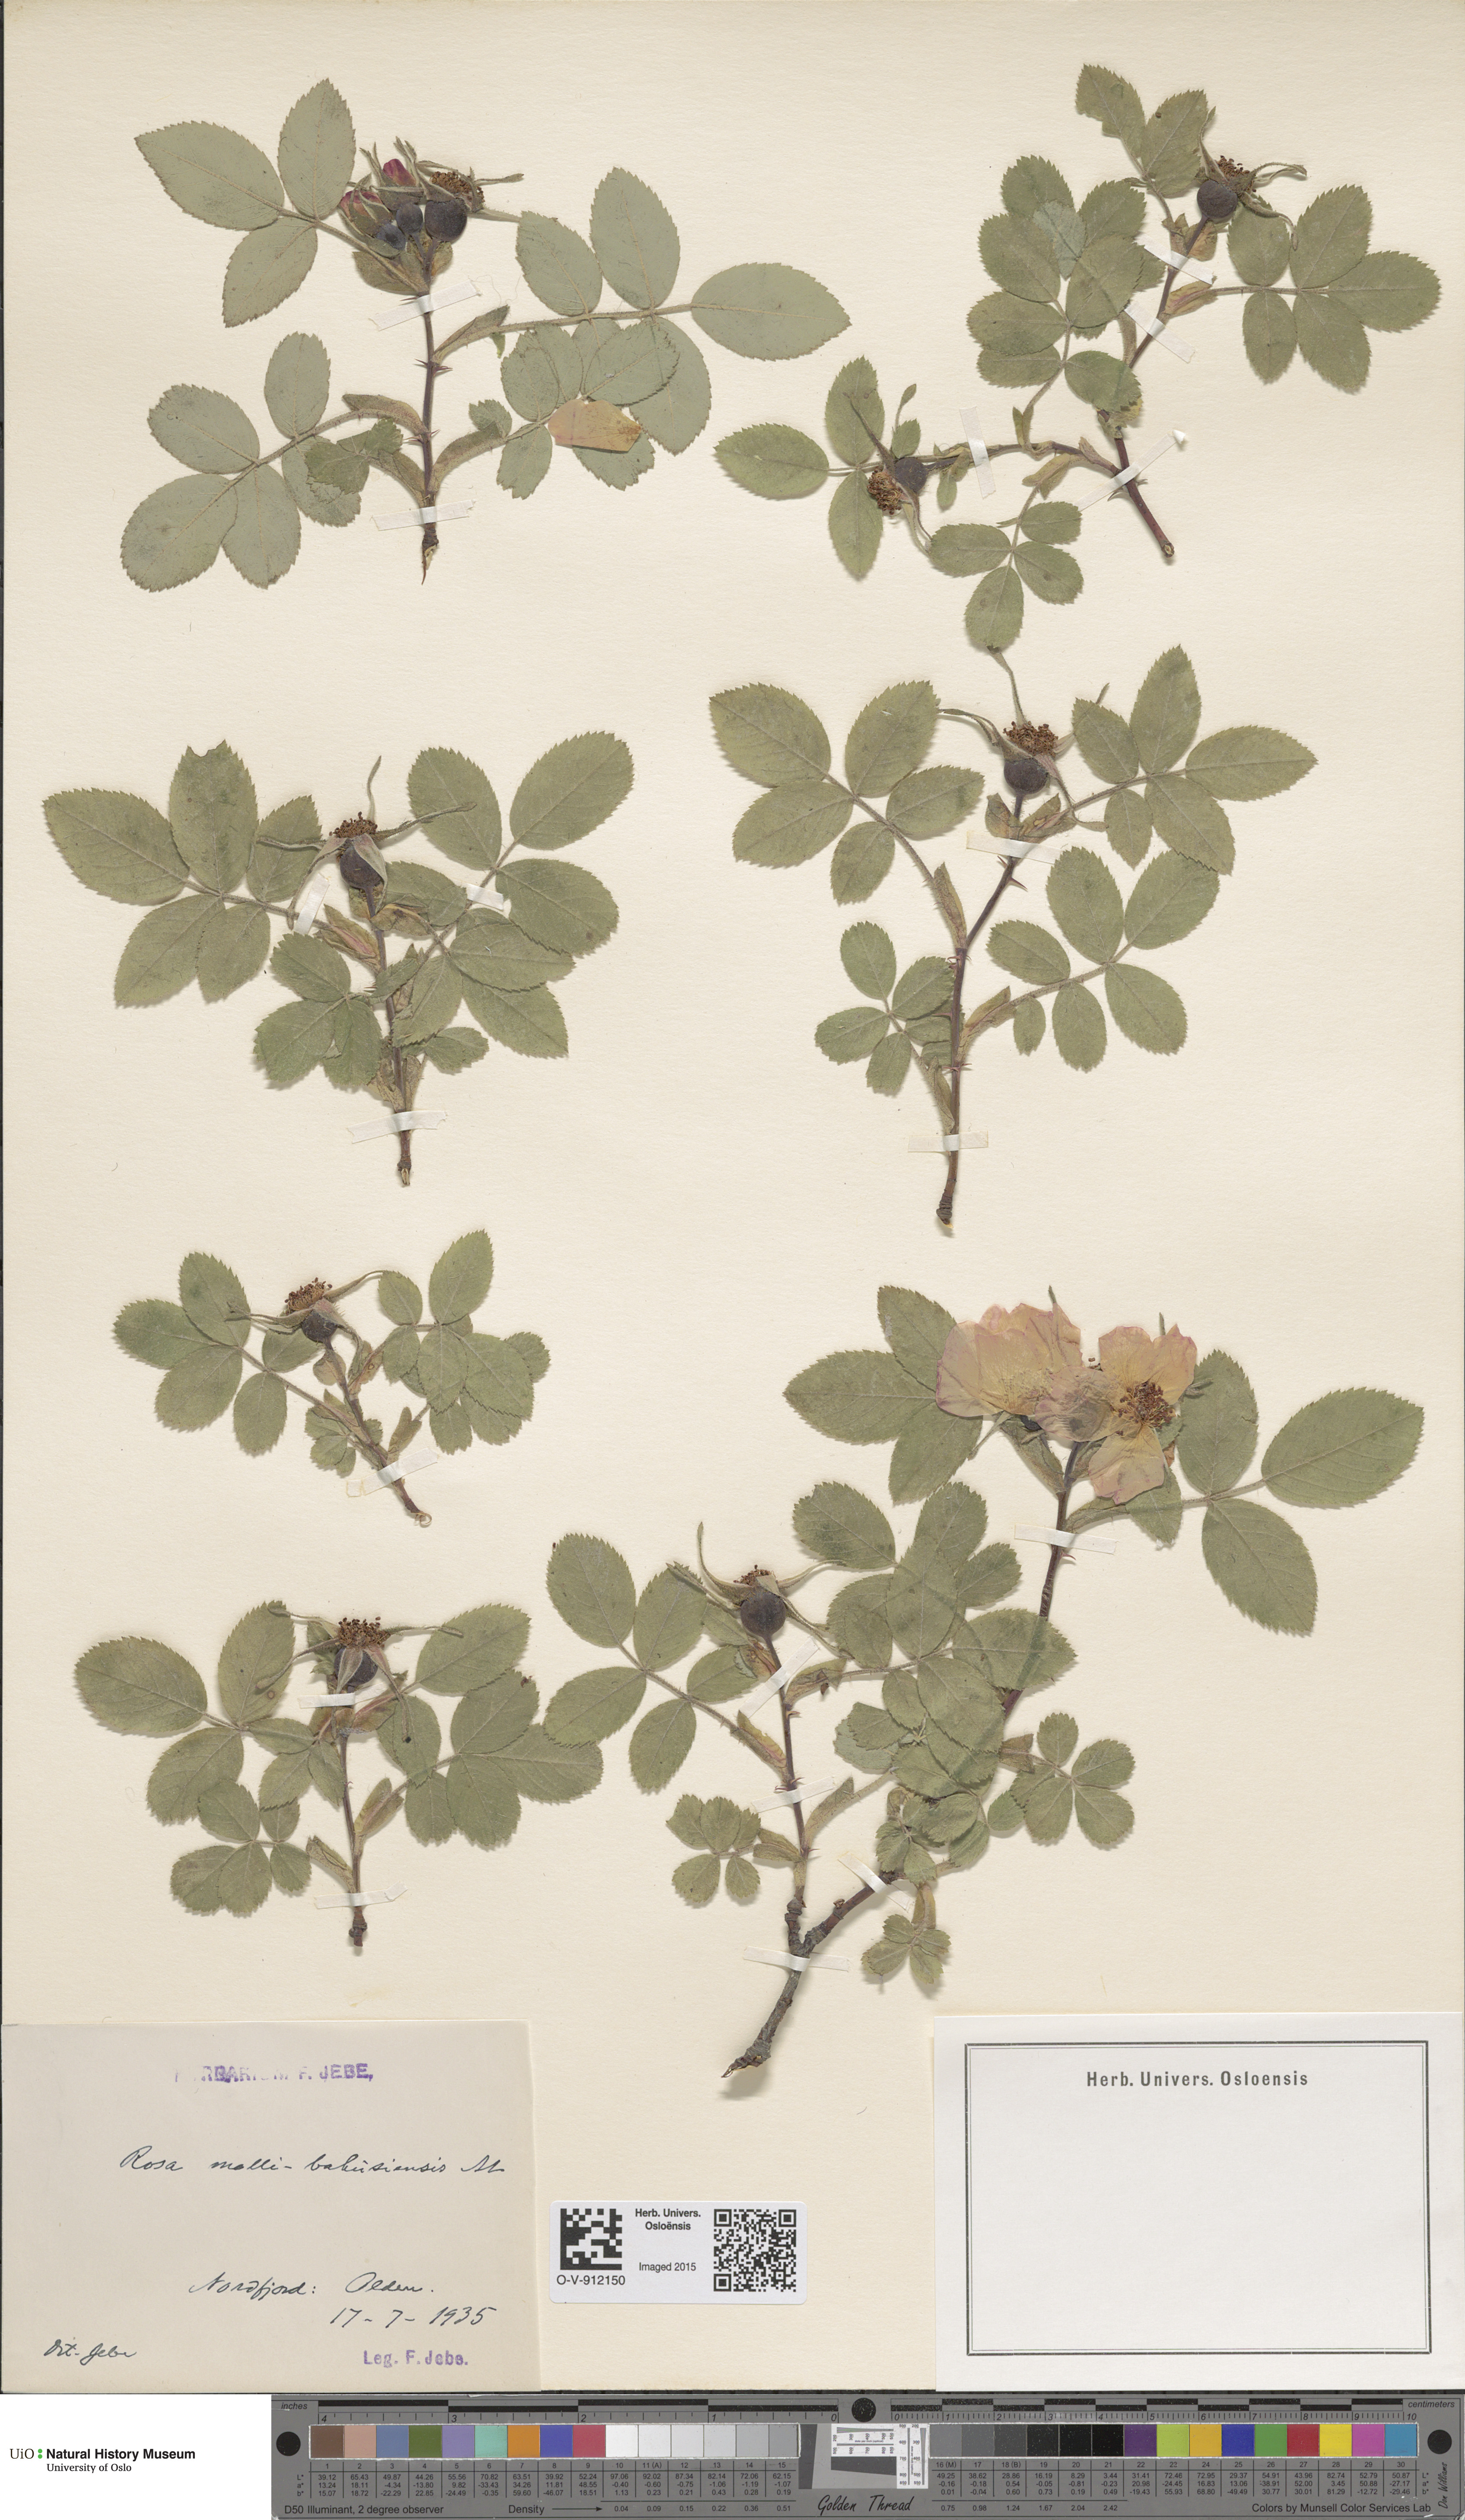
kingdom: Plantae
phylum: Tracheophyta
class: Magnoliopsida
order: Rosales
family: Rosaceae
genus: Rosa
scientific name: Rosa mollis
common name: Rose
